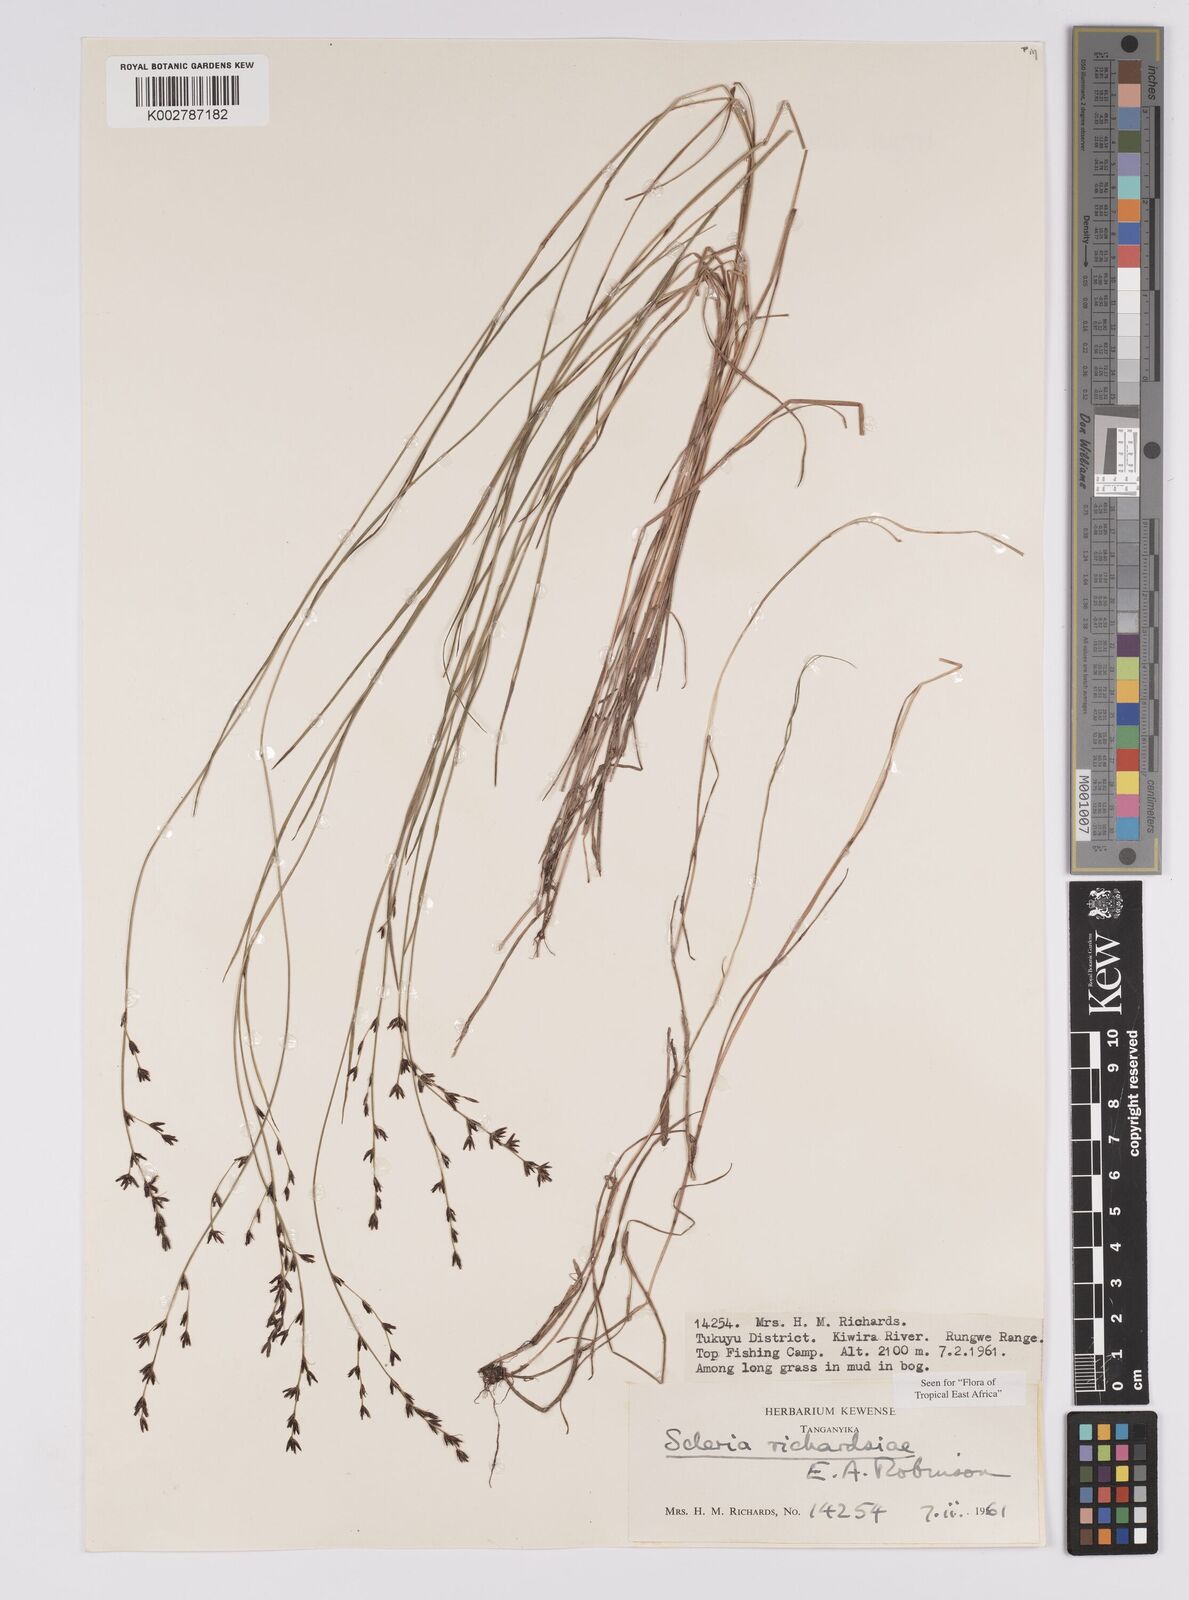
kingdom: Plantae
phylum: Tracheophyta
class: Liliopsida
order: Poales
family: Cyperaceae
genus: Scleria
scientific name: Scleria richardsiae
